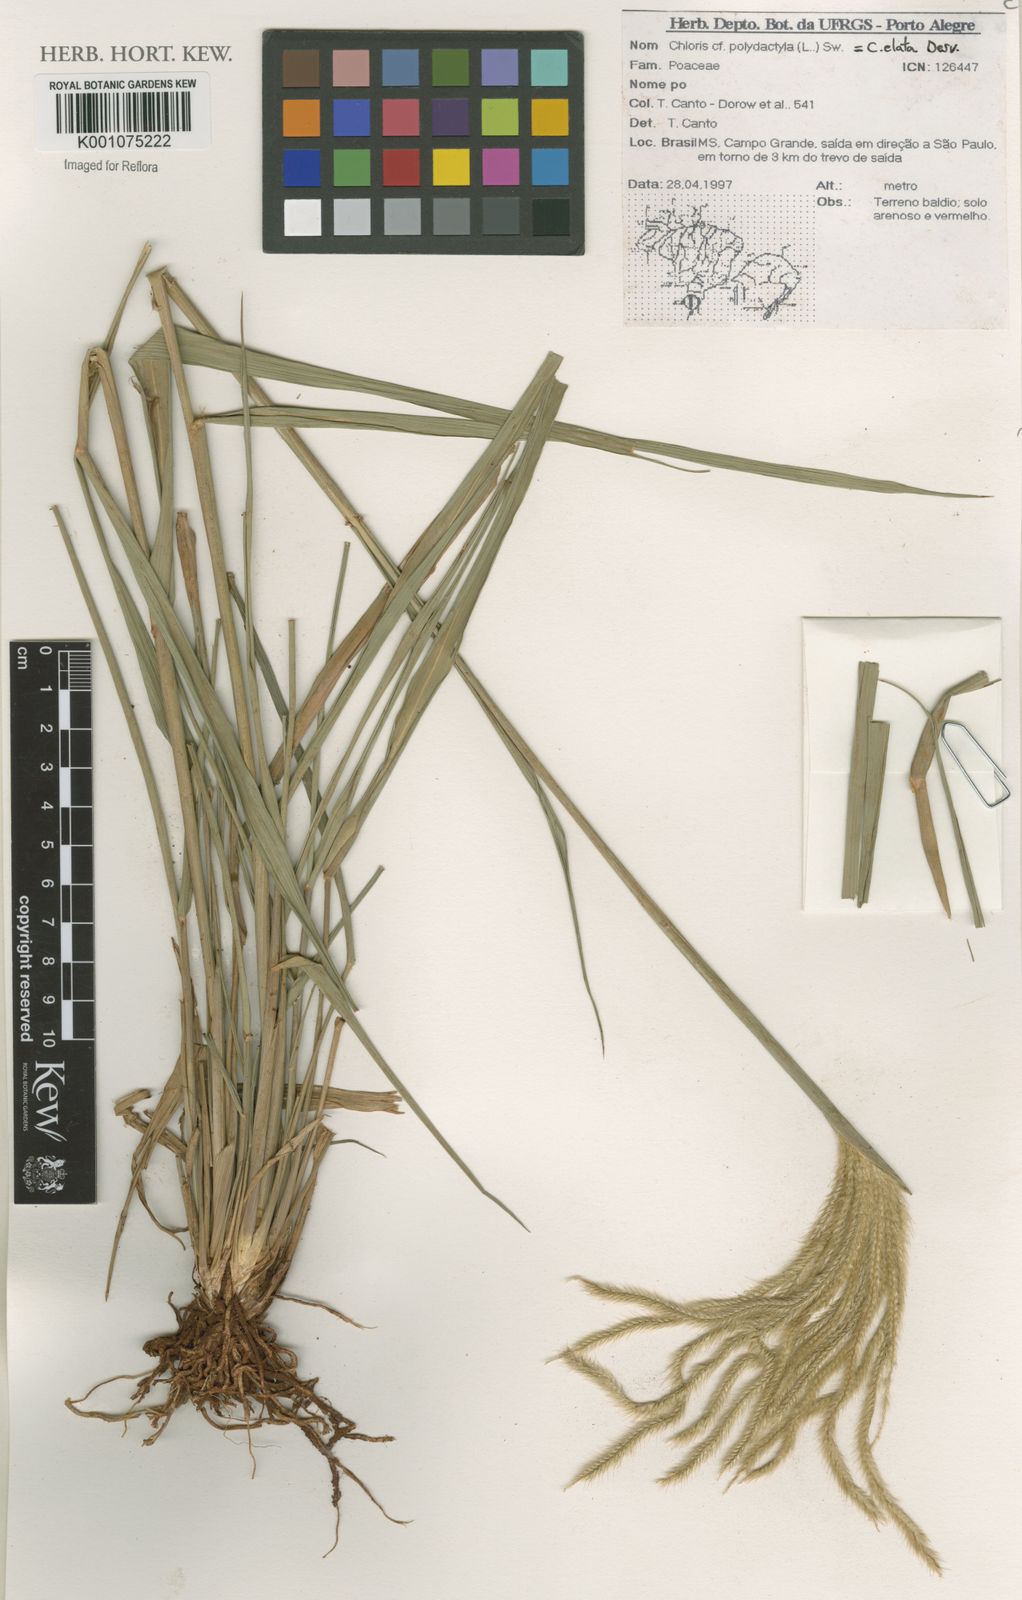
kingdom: Plantae
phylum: Tracheophyta
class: Liliopsida
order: Poales
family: Poaceae
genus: Stapfochloa
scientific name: Stapfochloa elata
